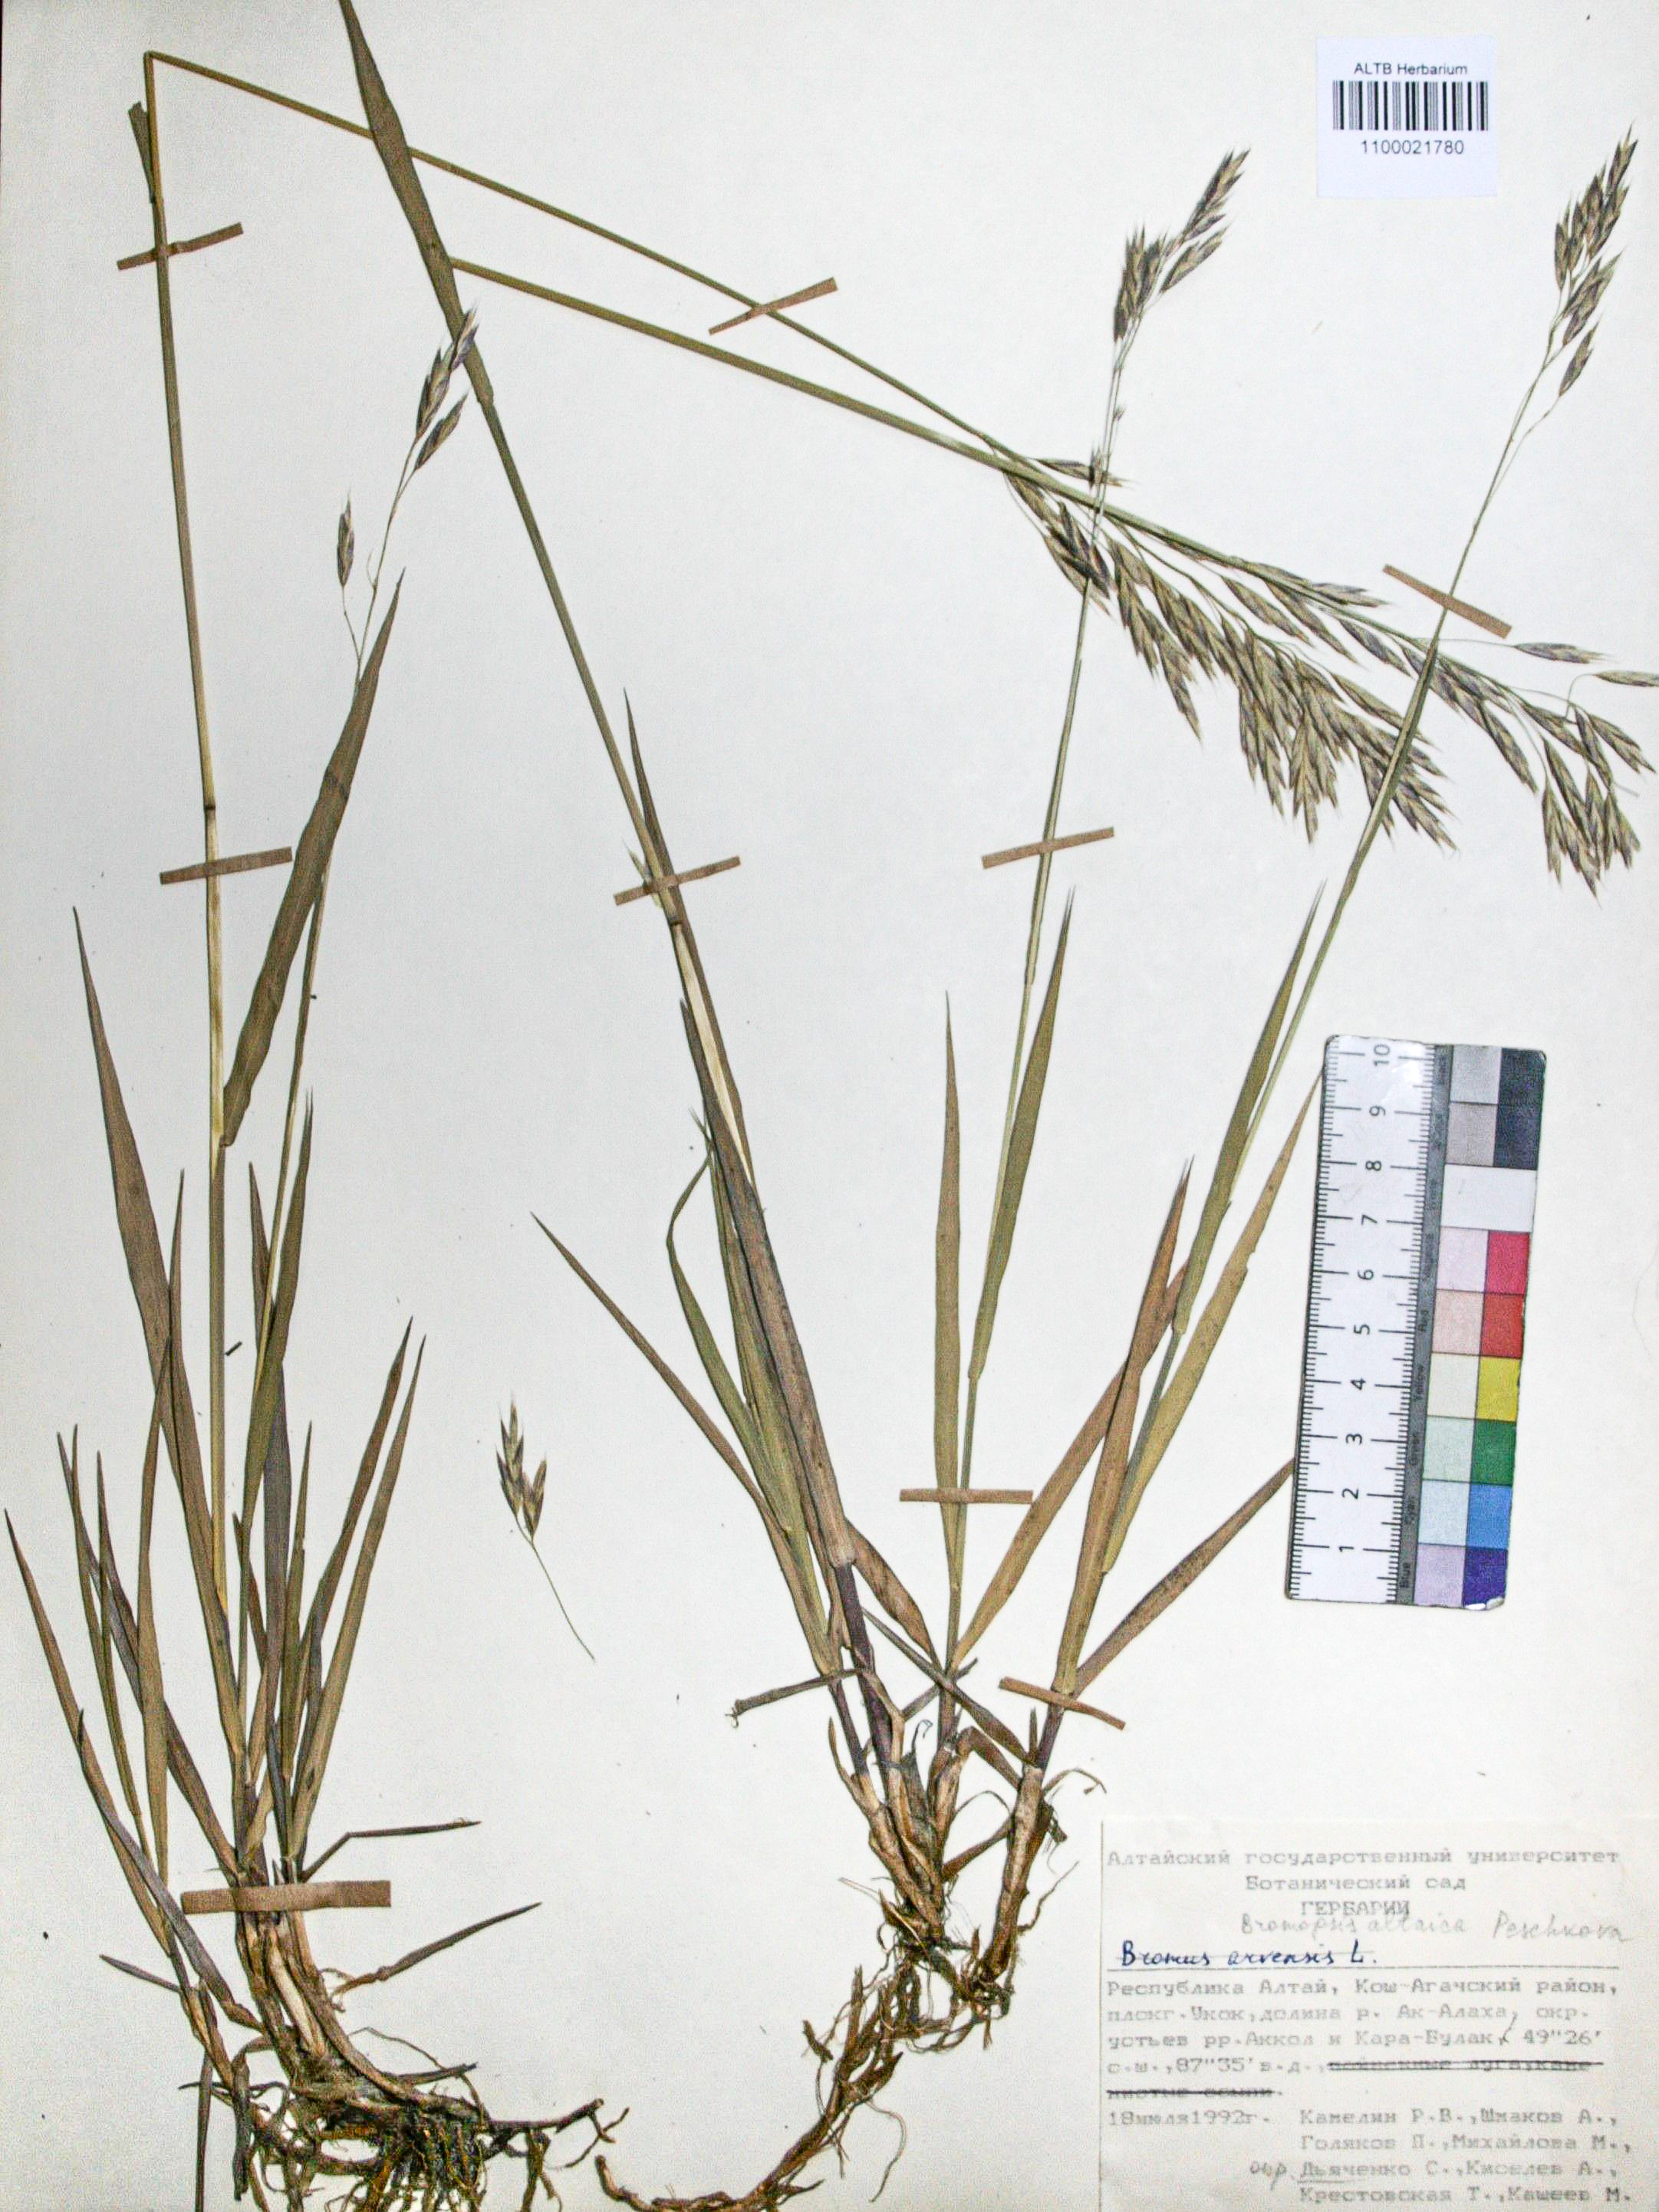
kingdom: Plantae
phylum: Tracheophyta
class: Liliopsida
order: Poales
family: Poaceae
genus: Bromus
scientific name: Bromus pumpellianus
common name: Pumpelly's brome
